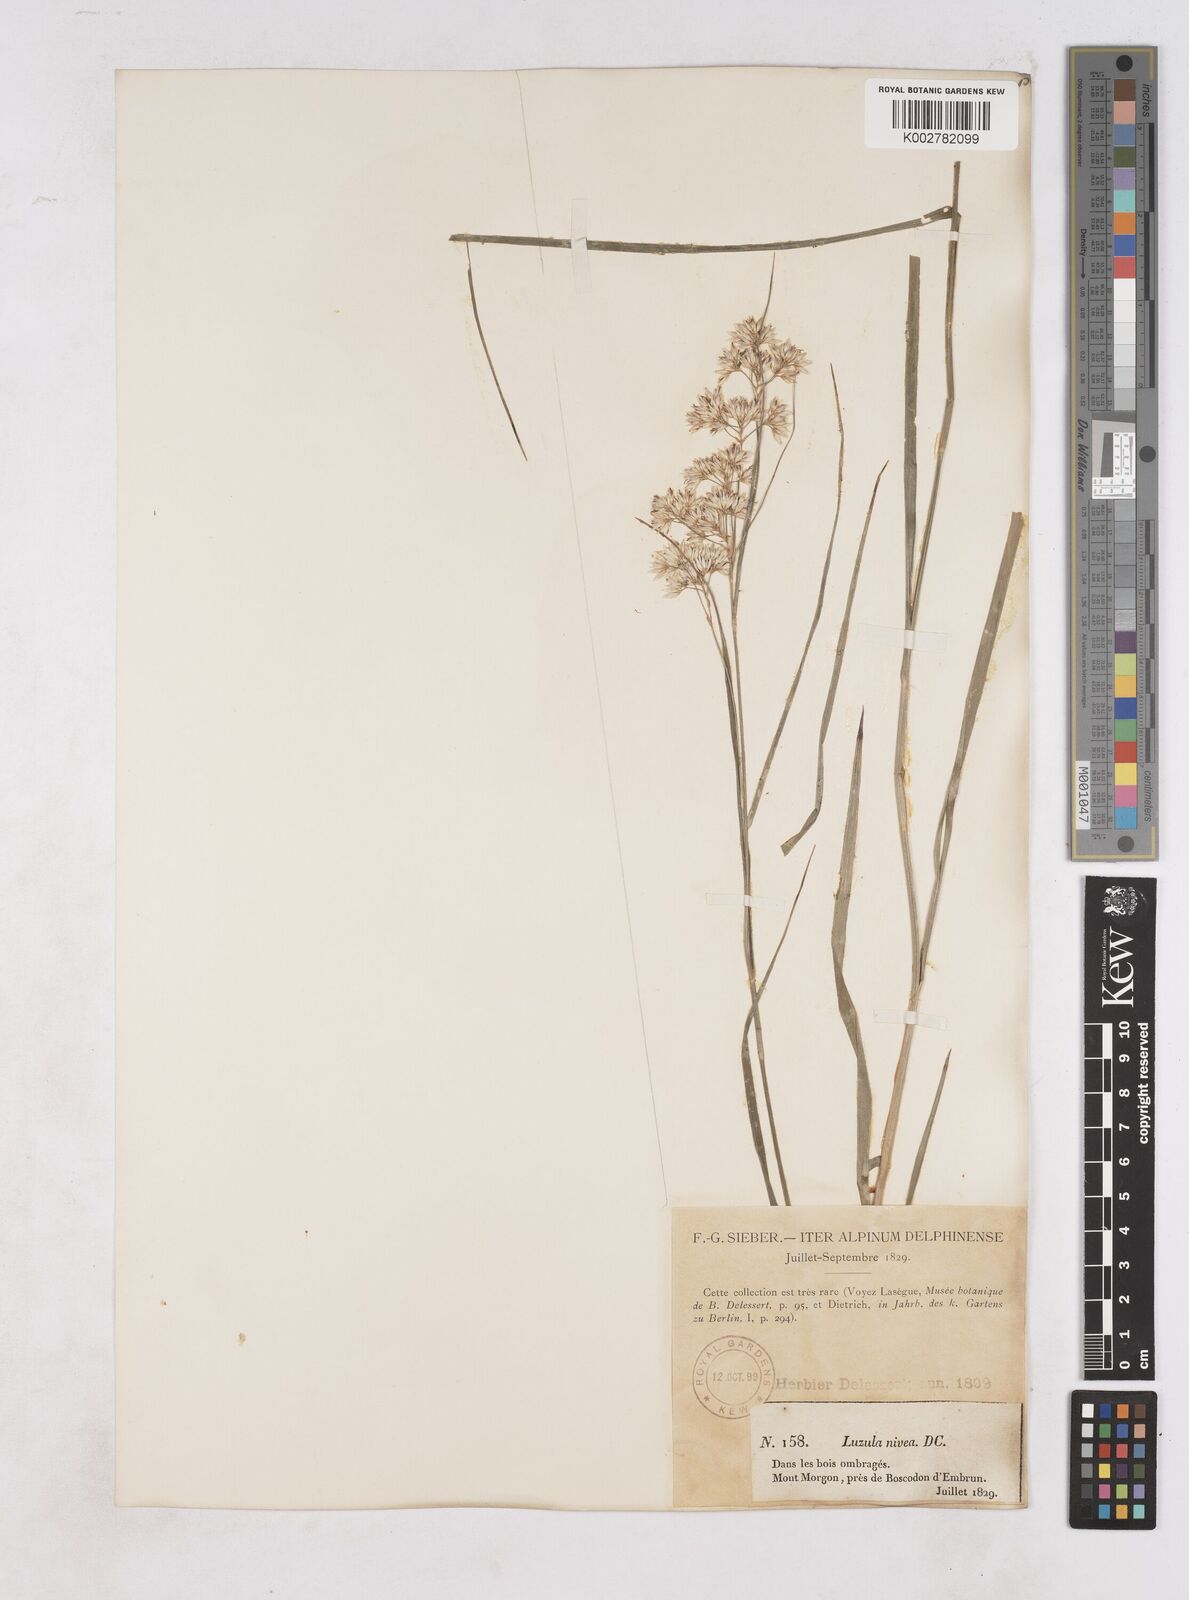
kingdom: Plantae
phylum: Tracheophyta
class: Liliopsida
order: Poales
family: Juncaceae
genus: Luzula
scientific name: Luzula nivea
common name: Snow-white wood-rush
